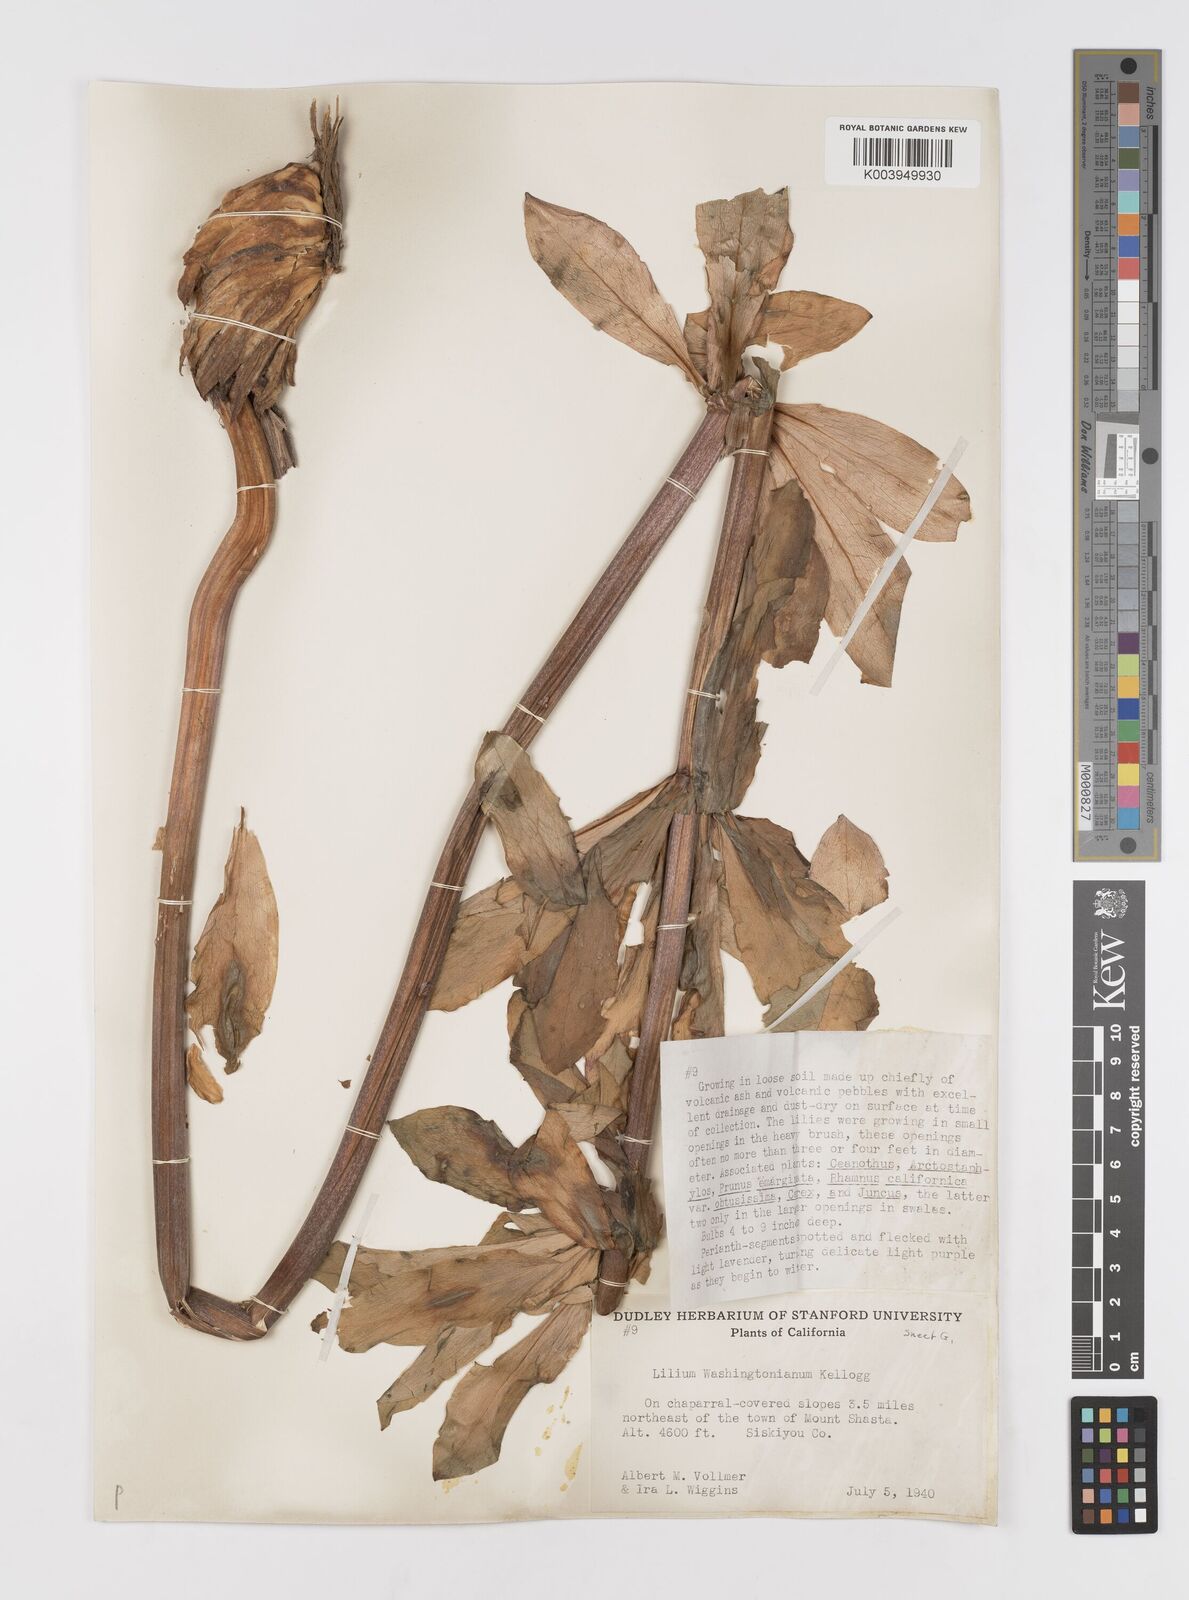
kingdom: Plantae
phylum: Tracheophyta
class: Liliopsida
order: Liliales
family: Liliaceae
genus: Lilium
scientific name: Lilium washingtonianum
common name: Washington lily
